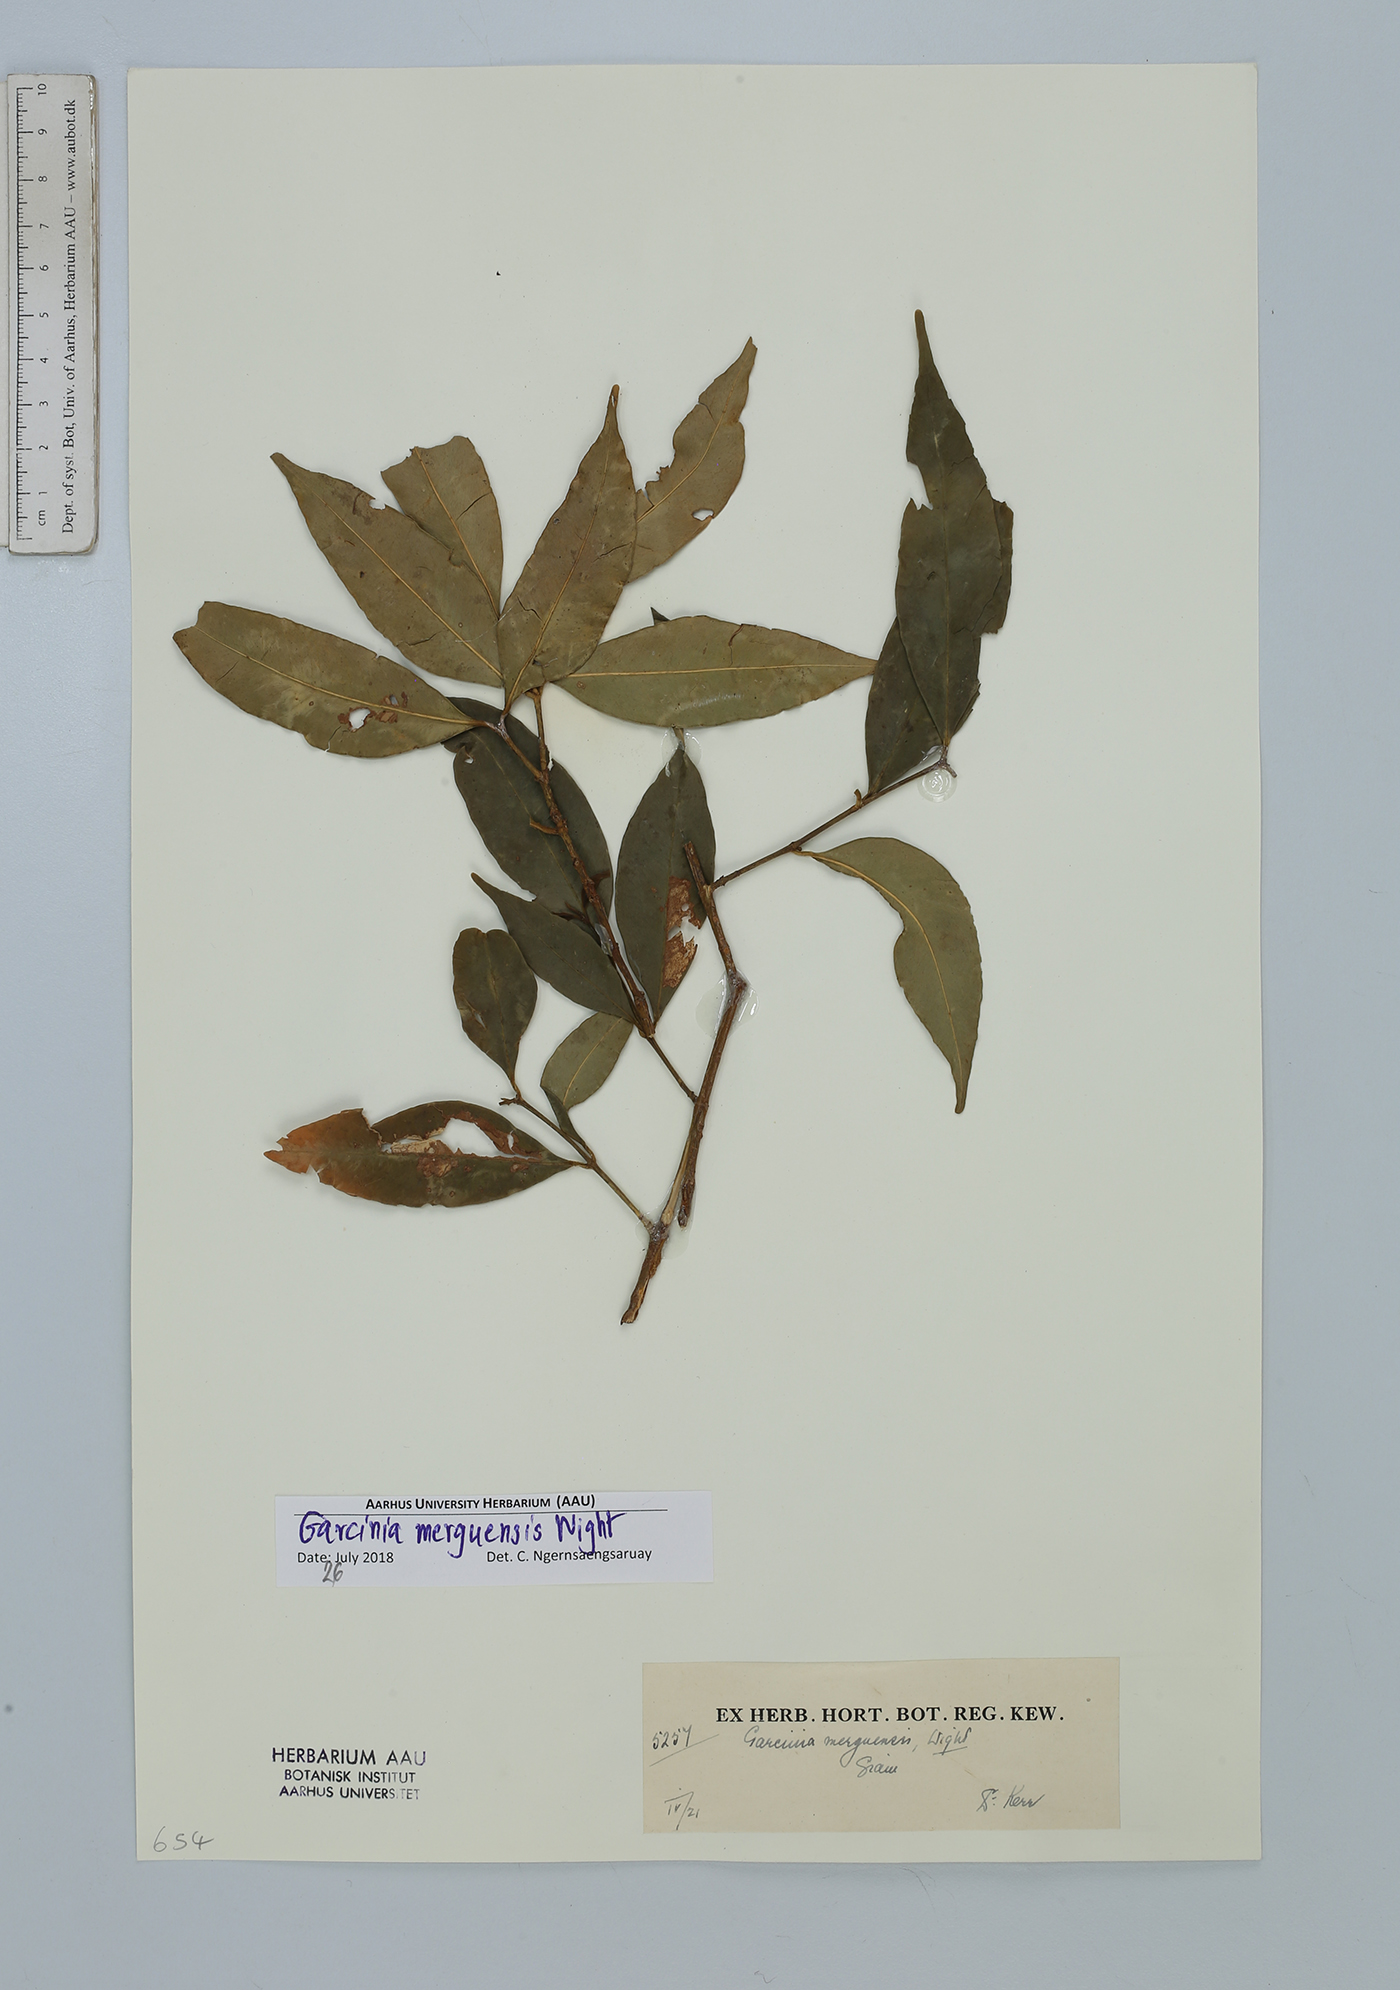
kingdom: Plantae
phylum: Tracheophyta
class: Magnoliopsida
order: Malpighiales
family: Clusiaceae
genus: Garcinia
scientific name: Garcinia merguensis
